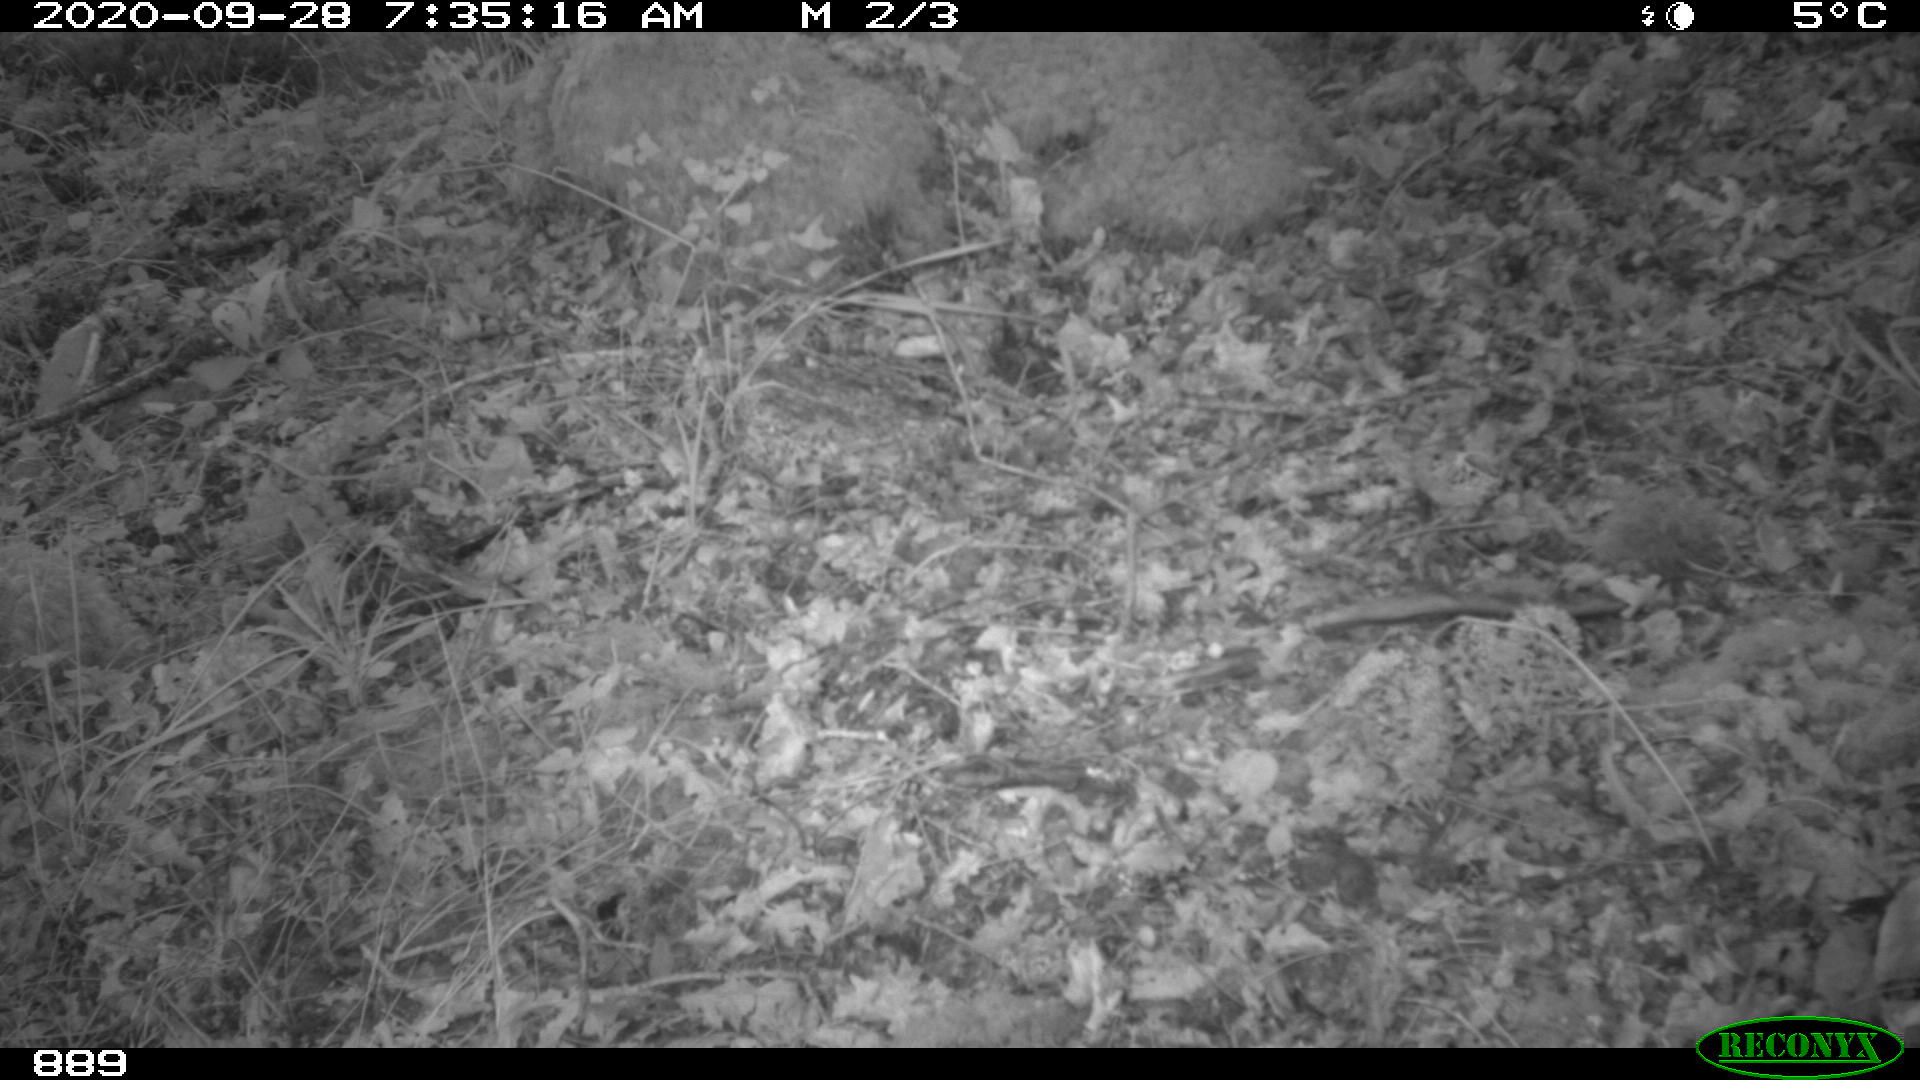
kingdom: Animalia
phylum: Chordata
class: Mammalia
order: Artiodactyla
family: Cervidae
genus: Capreolus
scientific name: Capreolus capreolus
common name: Western roe deer
